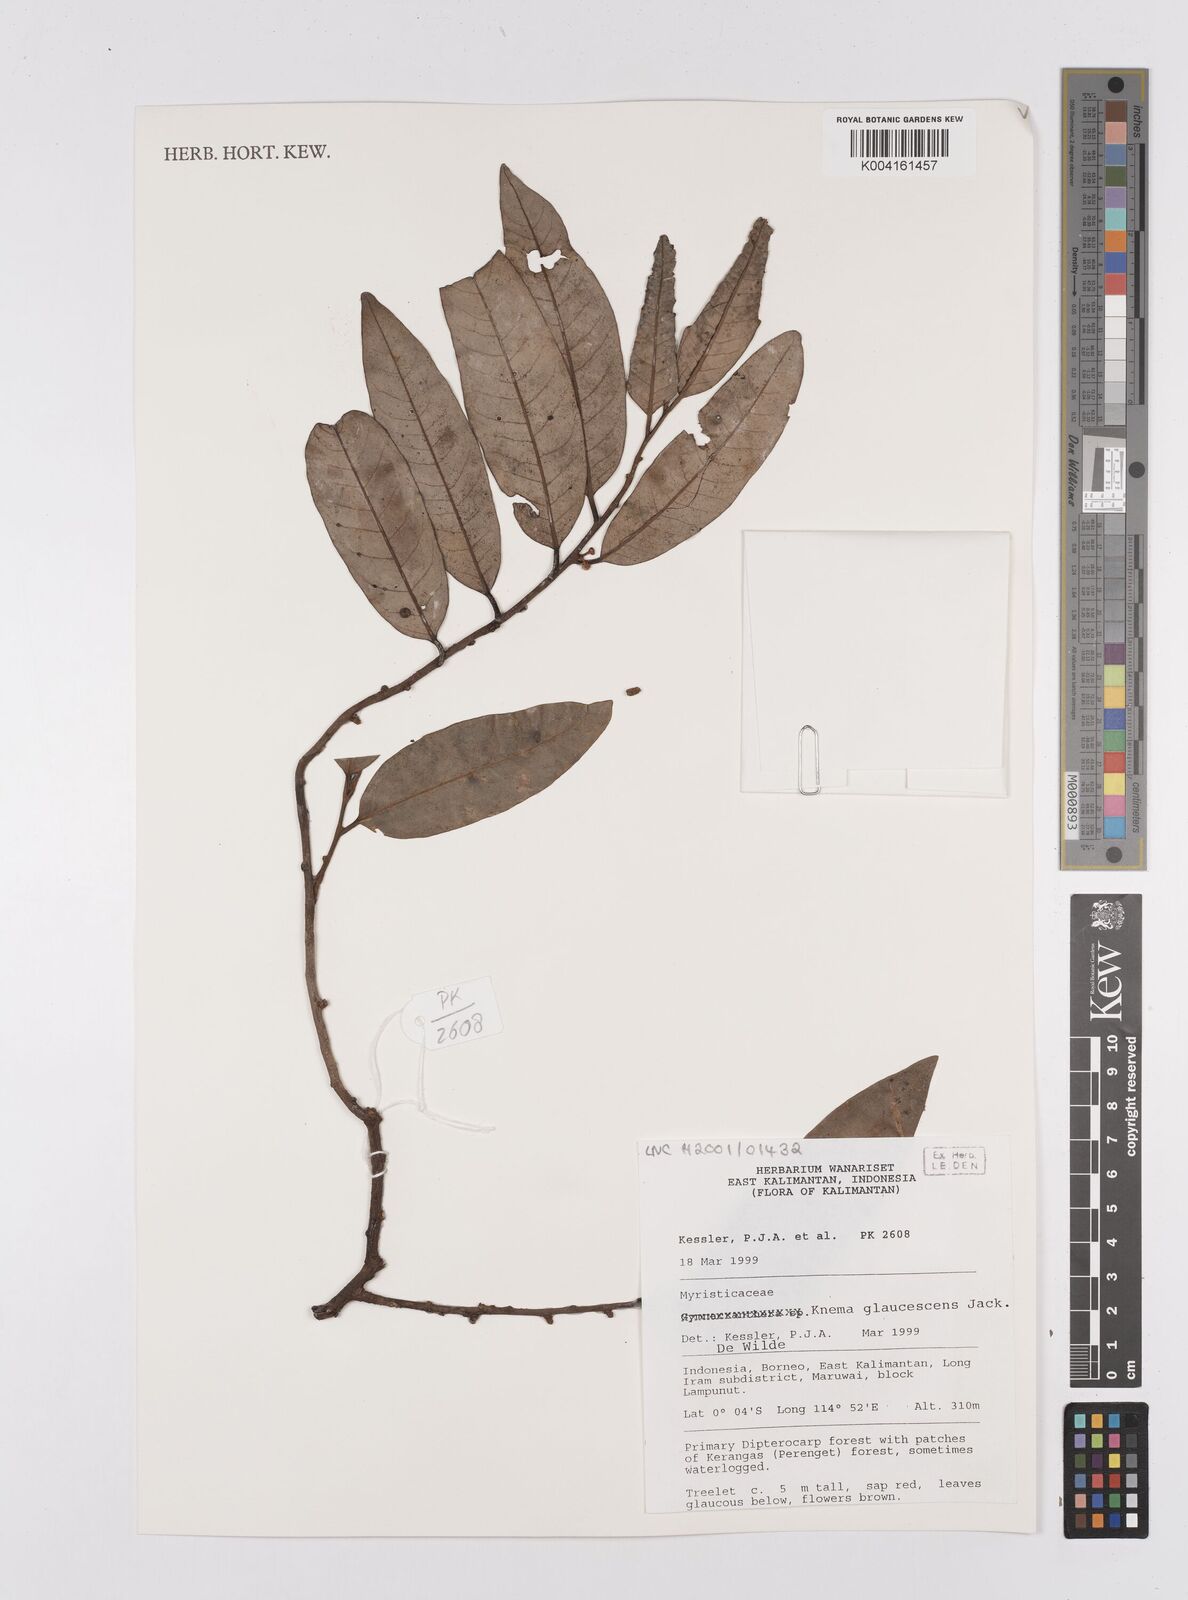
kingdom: Plantae
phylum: Tracheophyta
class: Magnoliopsida
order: Magnoliales
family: Myristicaceae
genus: Knema
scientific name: Knema
